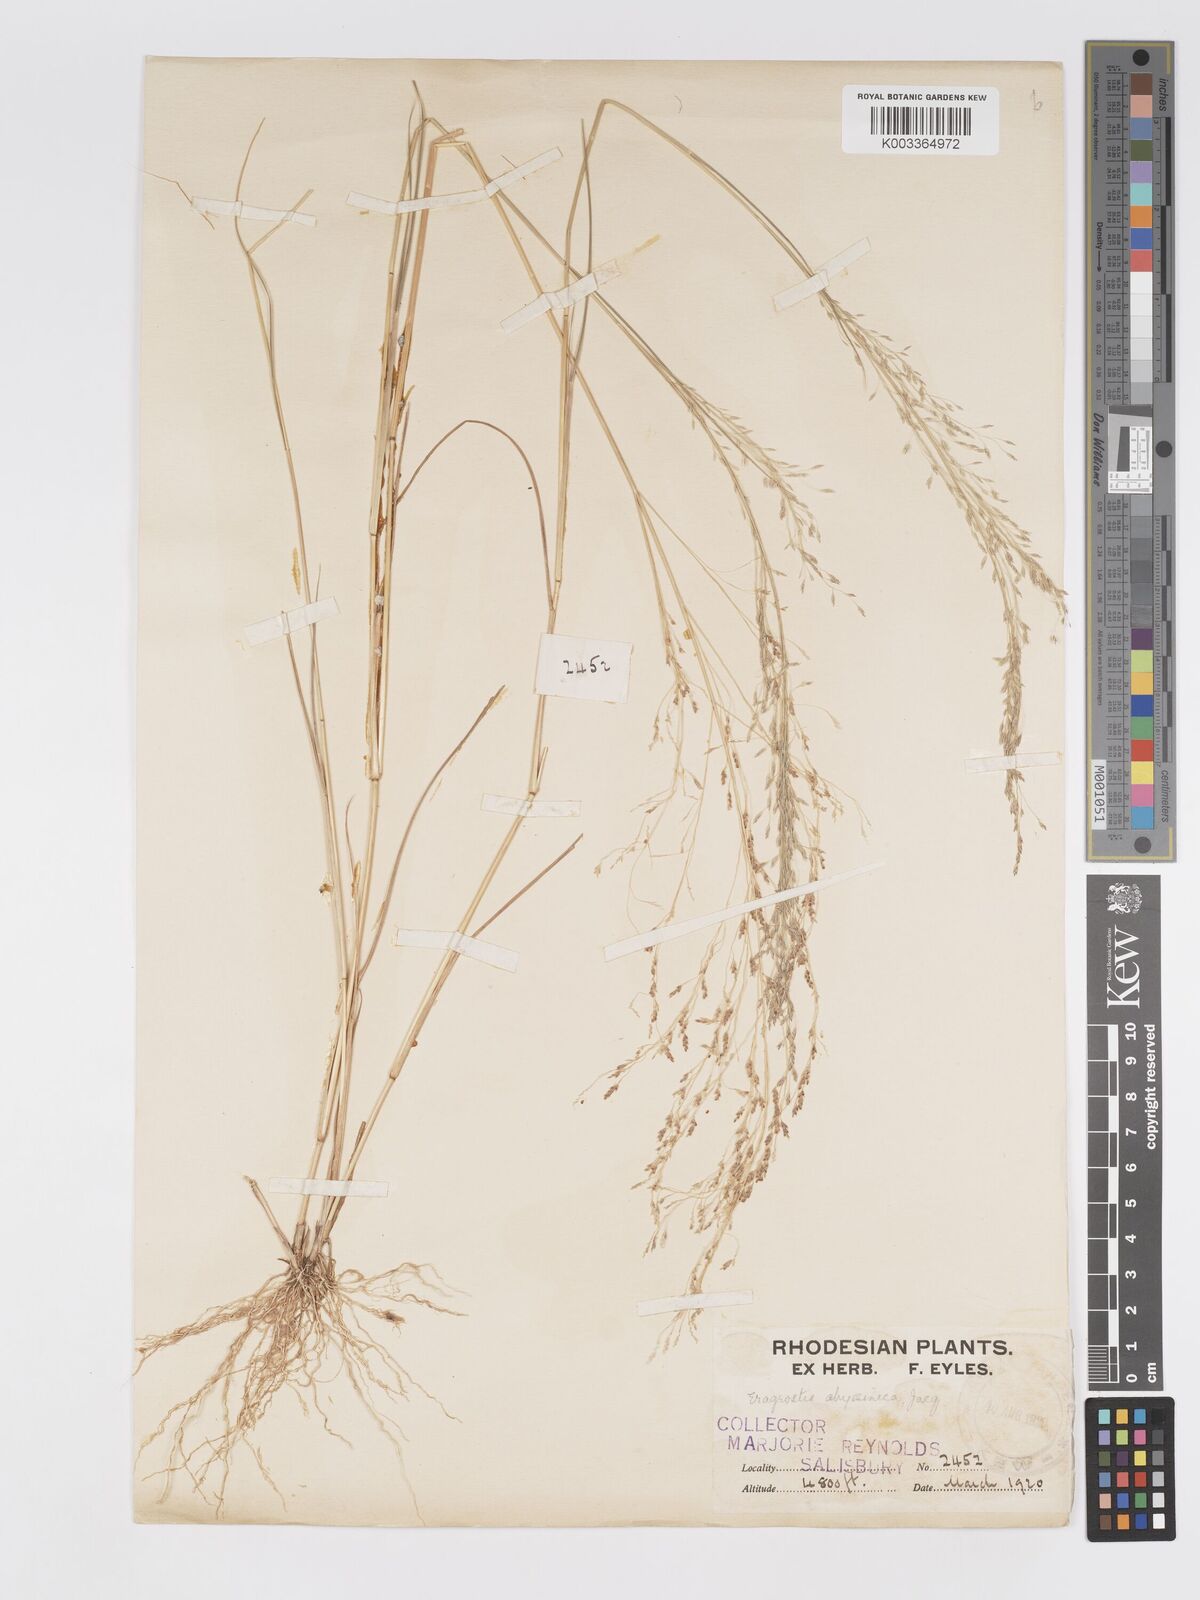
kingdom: Plantae
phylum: Tracheophyta
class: Liliopsida
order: Poales
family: Poaceae
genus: Eragrostis
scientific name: Eragrostis tef
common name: Teff
